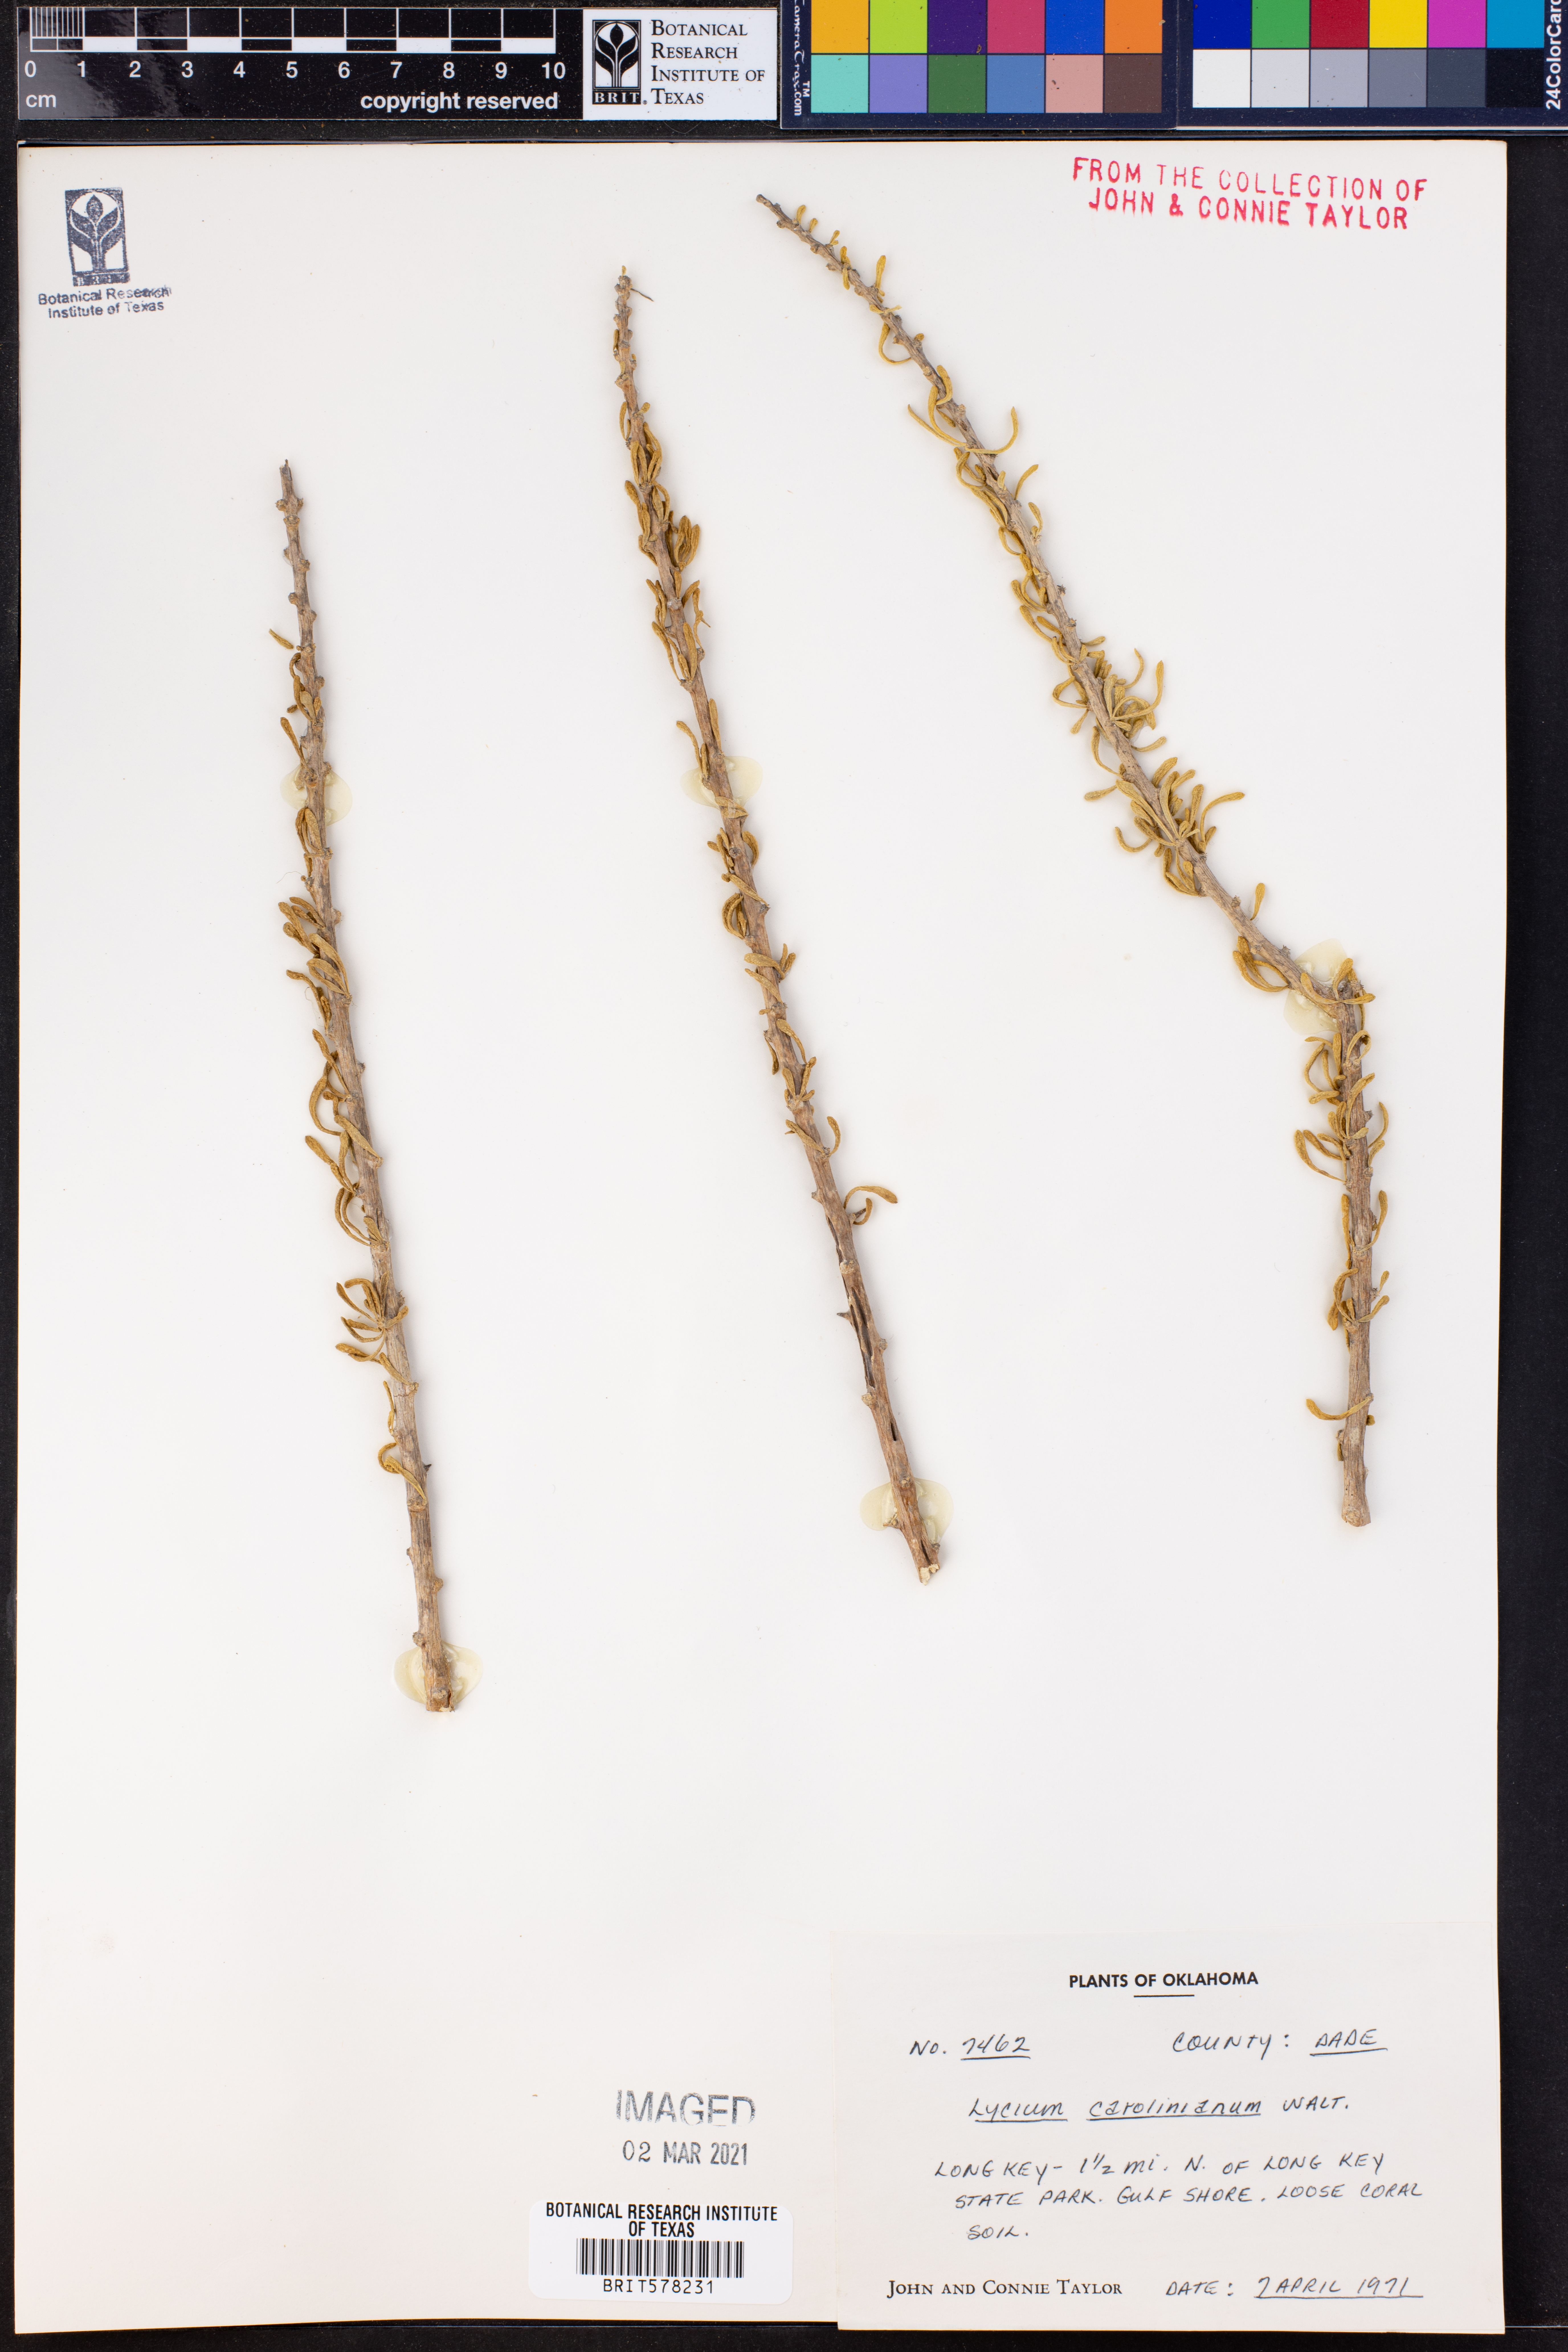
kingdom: Plantae
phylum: Tracheophyta
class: Magnoliopsida
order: Solanales
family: Solanaceae
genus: Lycium
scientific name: Lycium carolinianum
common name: Christmasberry
